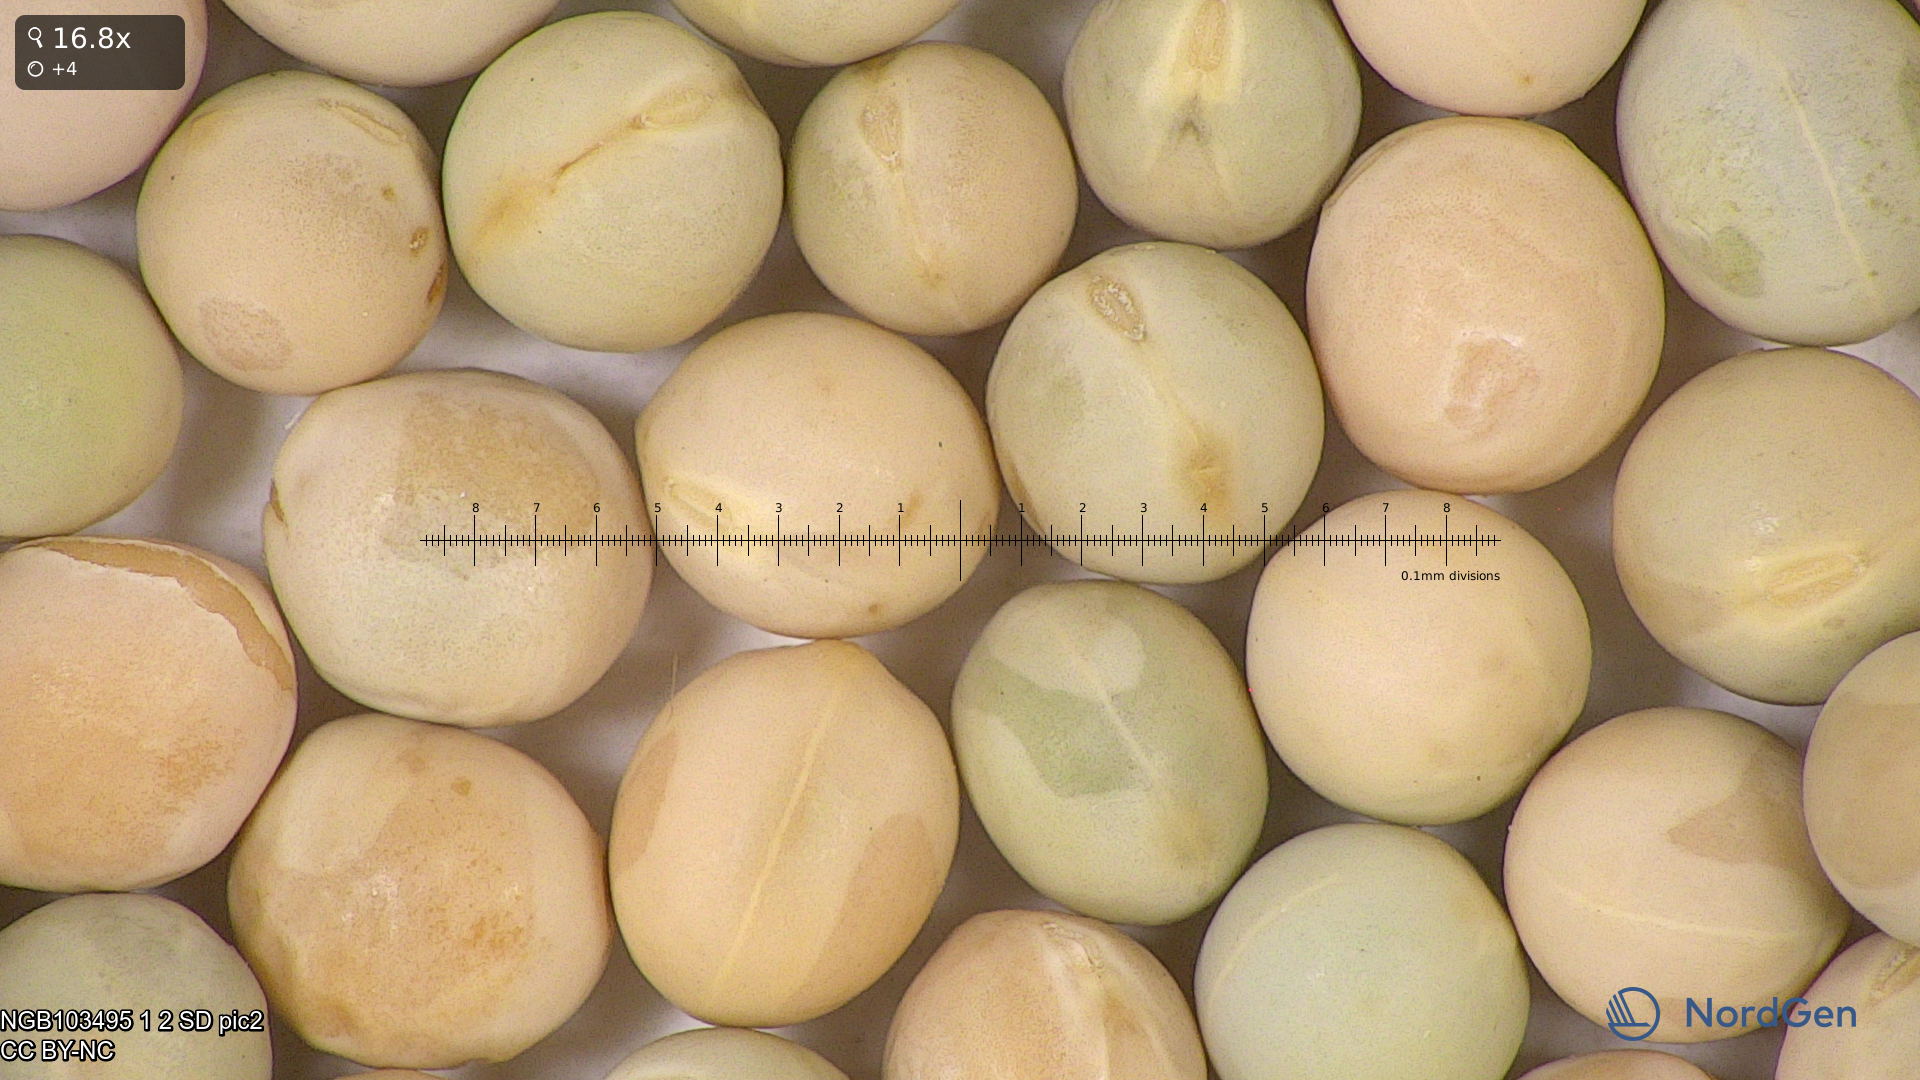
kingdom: Plantae
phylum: Tracheophyta
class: Magnoliopsida
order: Fabales
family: Fabaceae
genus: Lathyrus
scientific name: Lathyrus oleraceus
